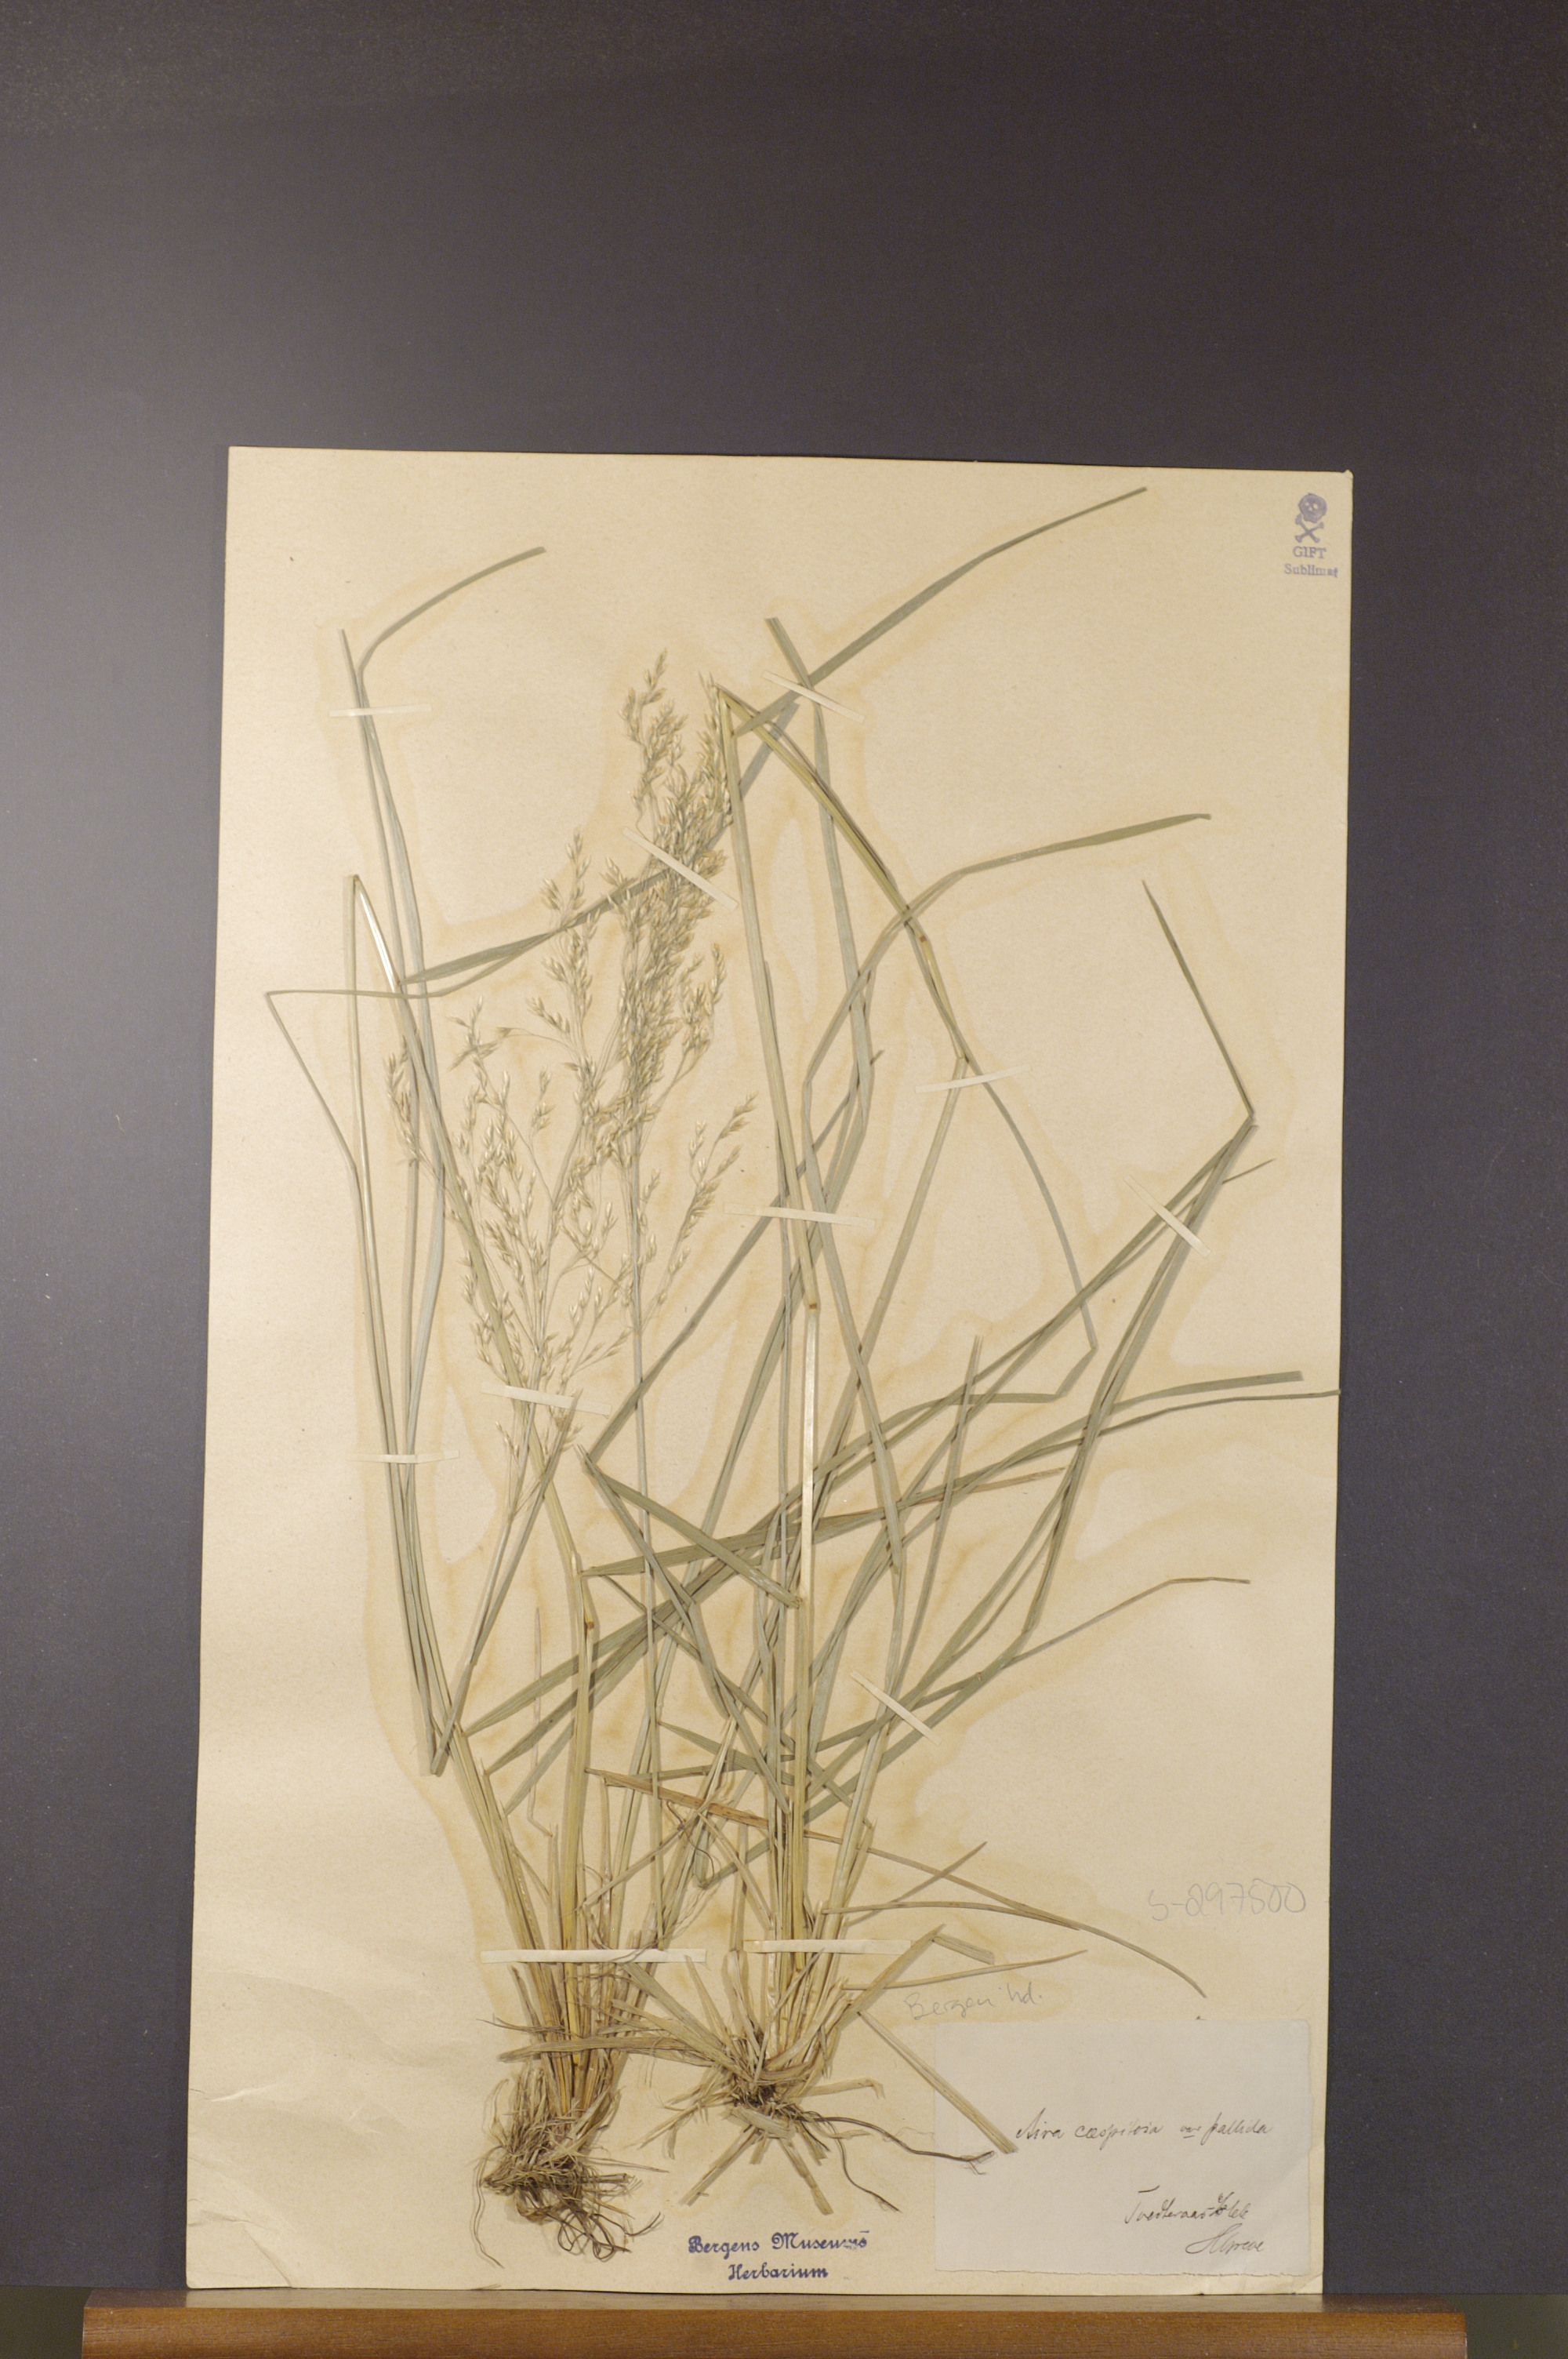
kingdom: Plantae
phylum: Tracheophyta
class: Liliopsida
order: Poales
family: Poaceae
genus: Deschampsia
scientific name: Deschampsia cespitosa
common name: Tufted hair-grass
